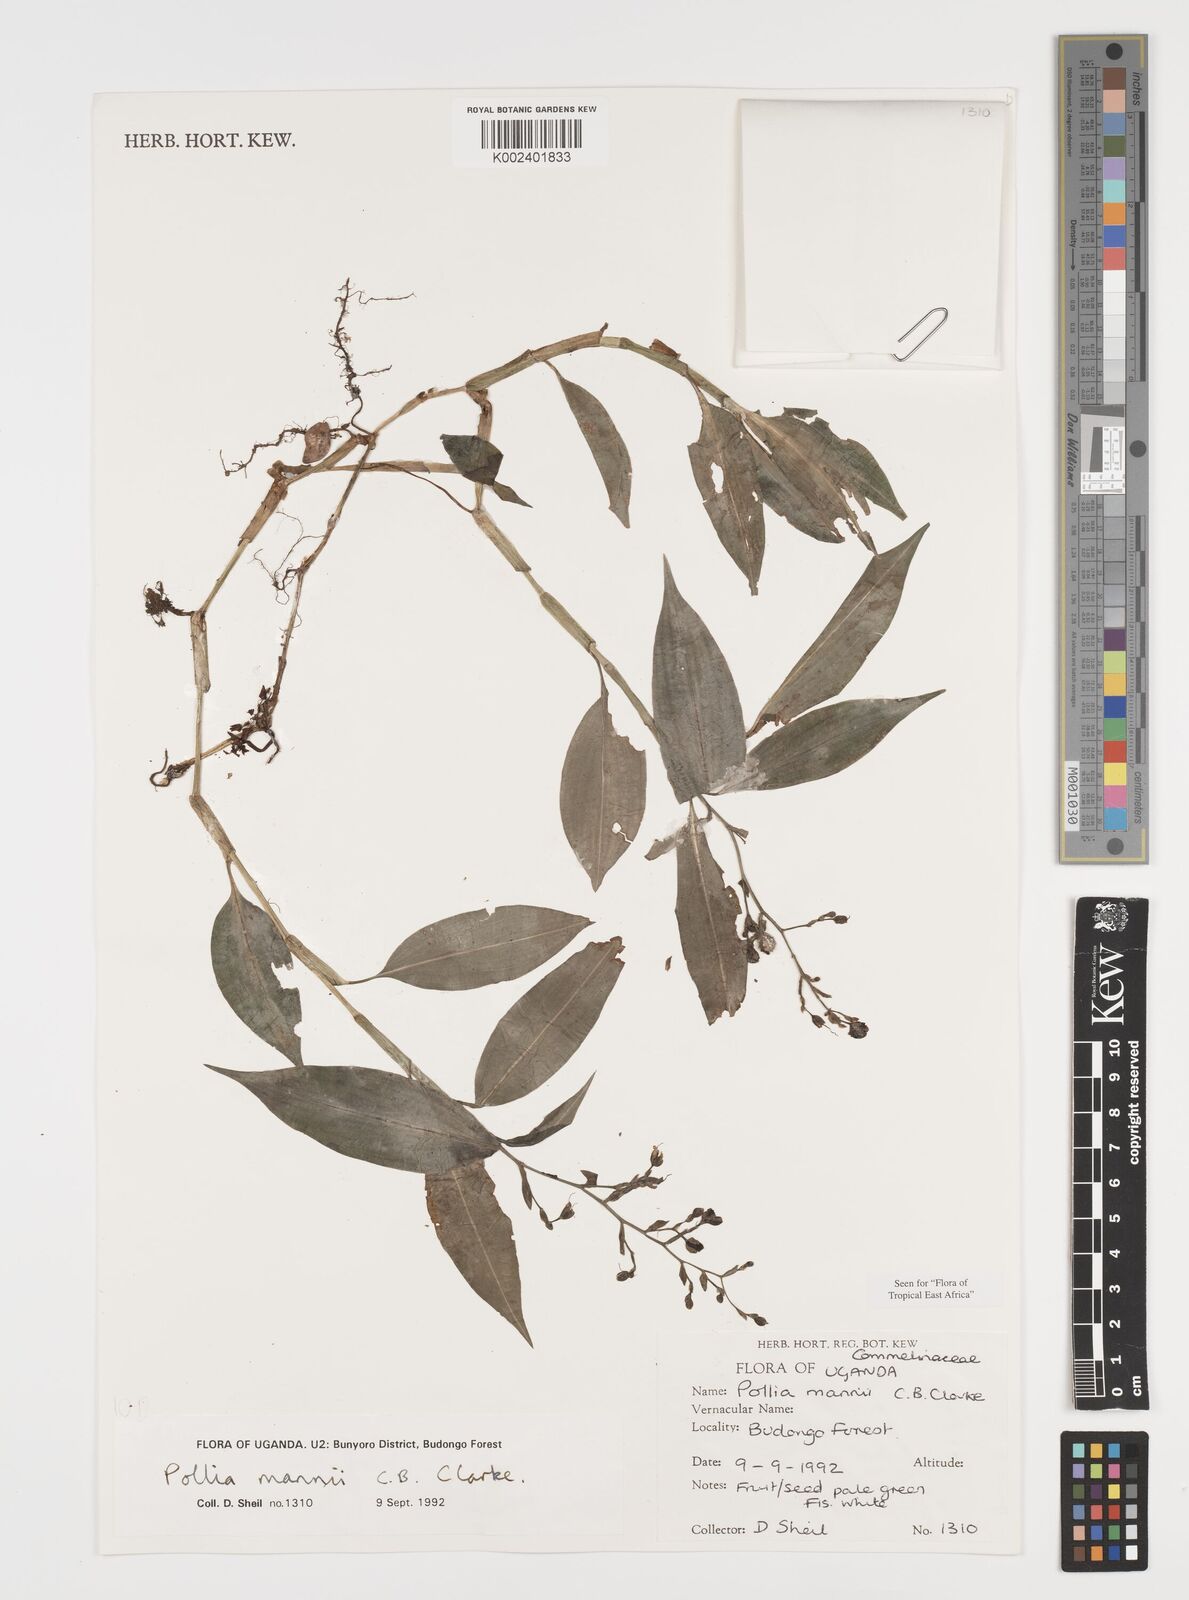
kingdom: Plantae
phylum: Tracheophyta
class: Liliopsida
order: Commelinales
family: Commelinaceae
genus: Pollia
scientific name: Pollia mannii
